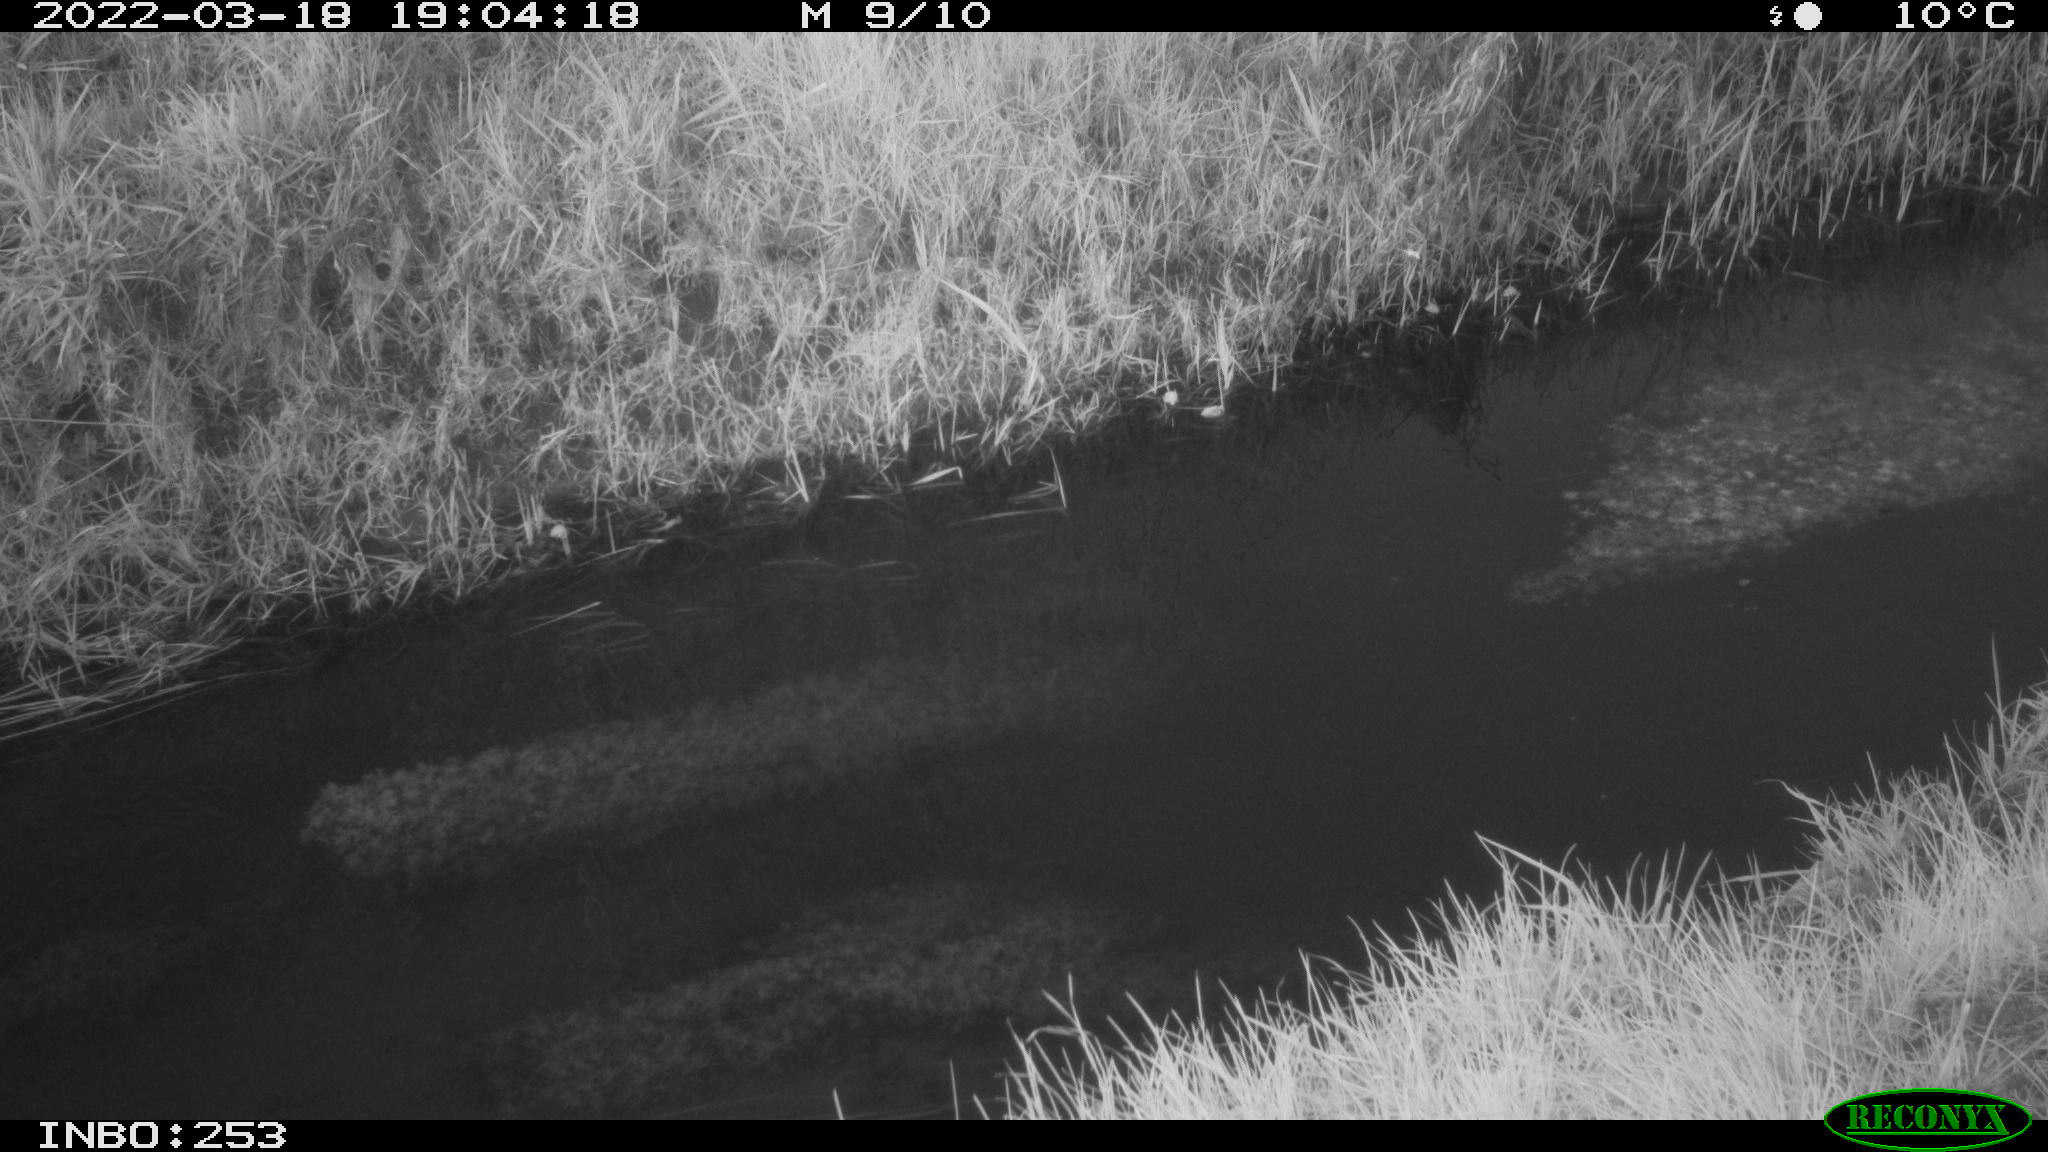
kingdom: Animalia
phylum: Chordata
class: Aves
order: Anseriformes
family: Anatidae
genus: Anas
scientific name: Anas platyrhynchos
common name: Mallard
